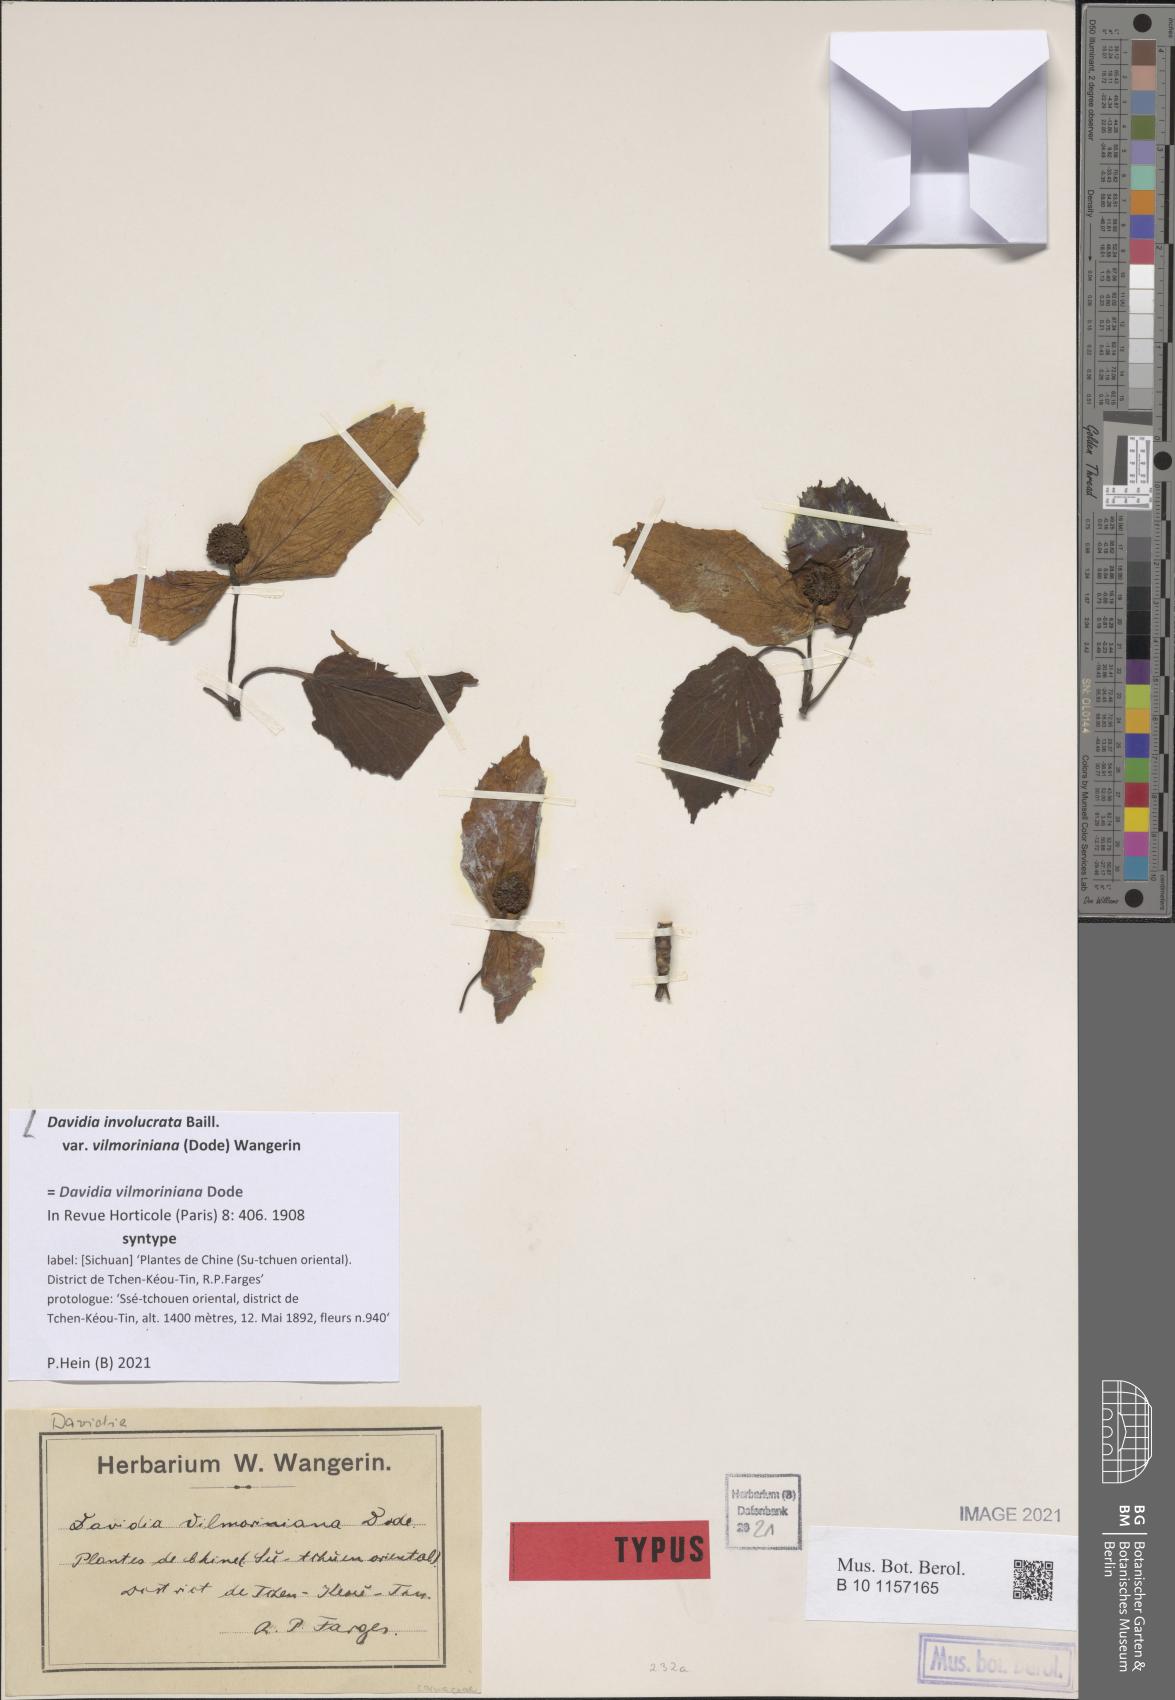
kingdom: Plantae
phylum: Tracheophyta
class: Magnoliopsida
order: Cornales
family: Nyssaceae
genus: Davidia
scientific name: Davidia involucrata
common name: Handkerchief-tree
